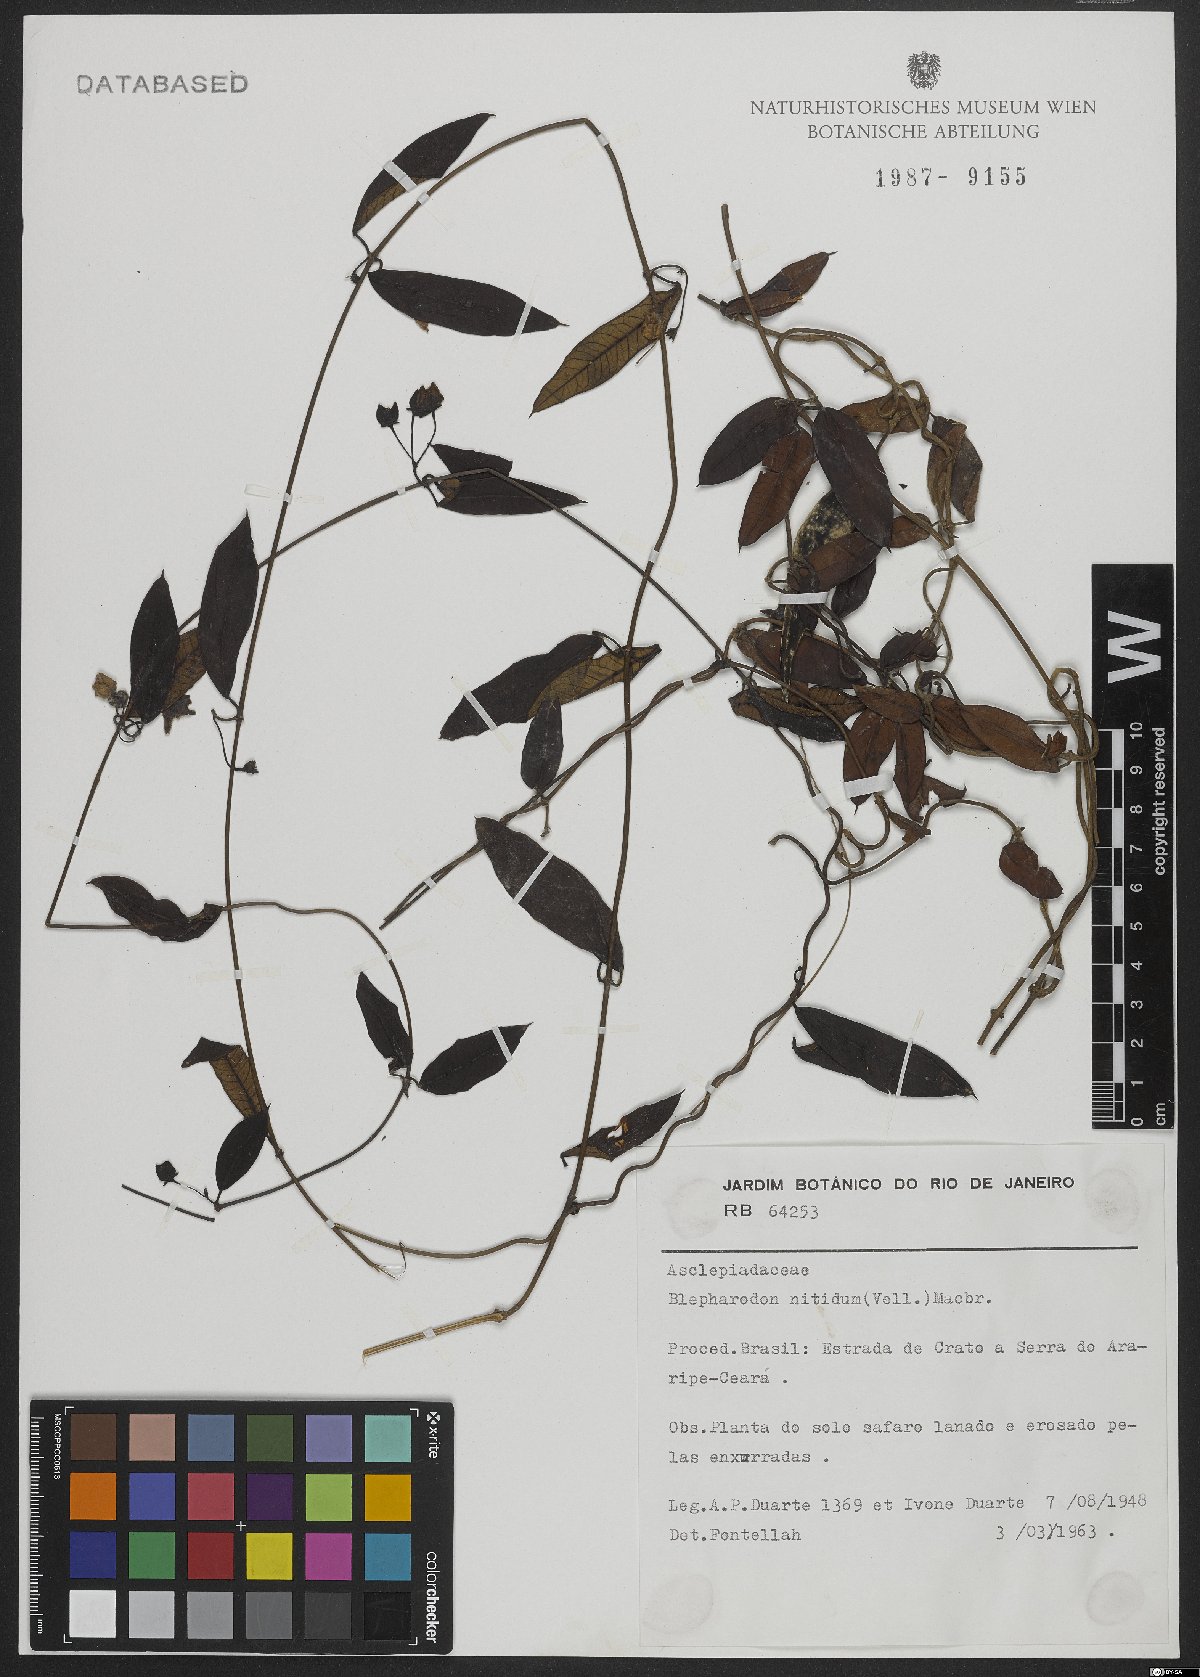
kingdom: Plantae
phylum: Tracheophyta
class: Magnoliopsida
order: Gentianales
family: Apocynaceae
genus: Blepharodon
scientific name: Blepharodon pictum
